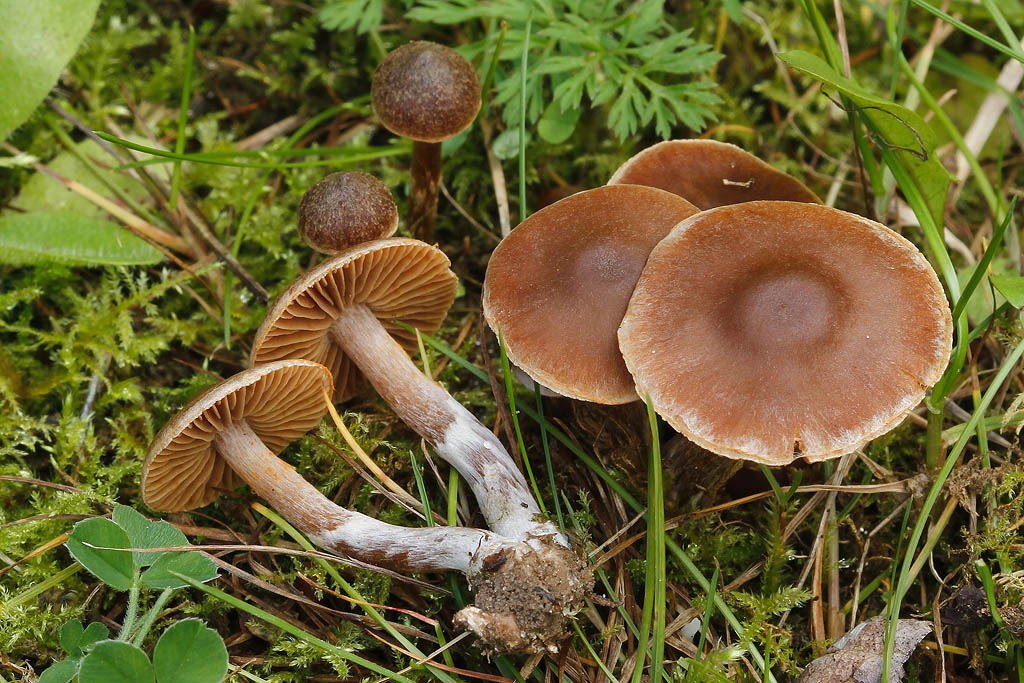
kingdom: Fungi
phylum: Basidiomycota
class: Agaricomycetes
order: Agaricales
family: Cortinariaceae
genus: Cortinarius
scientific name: Cortinarius
